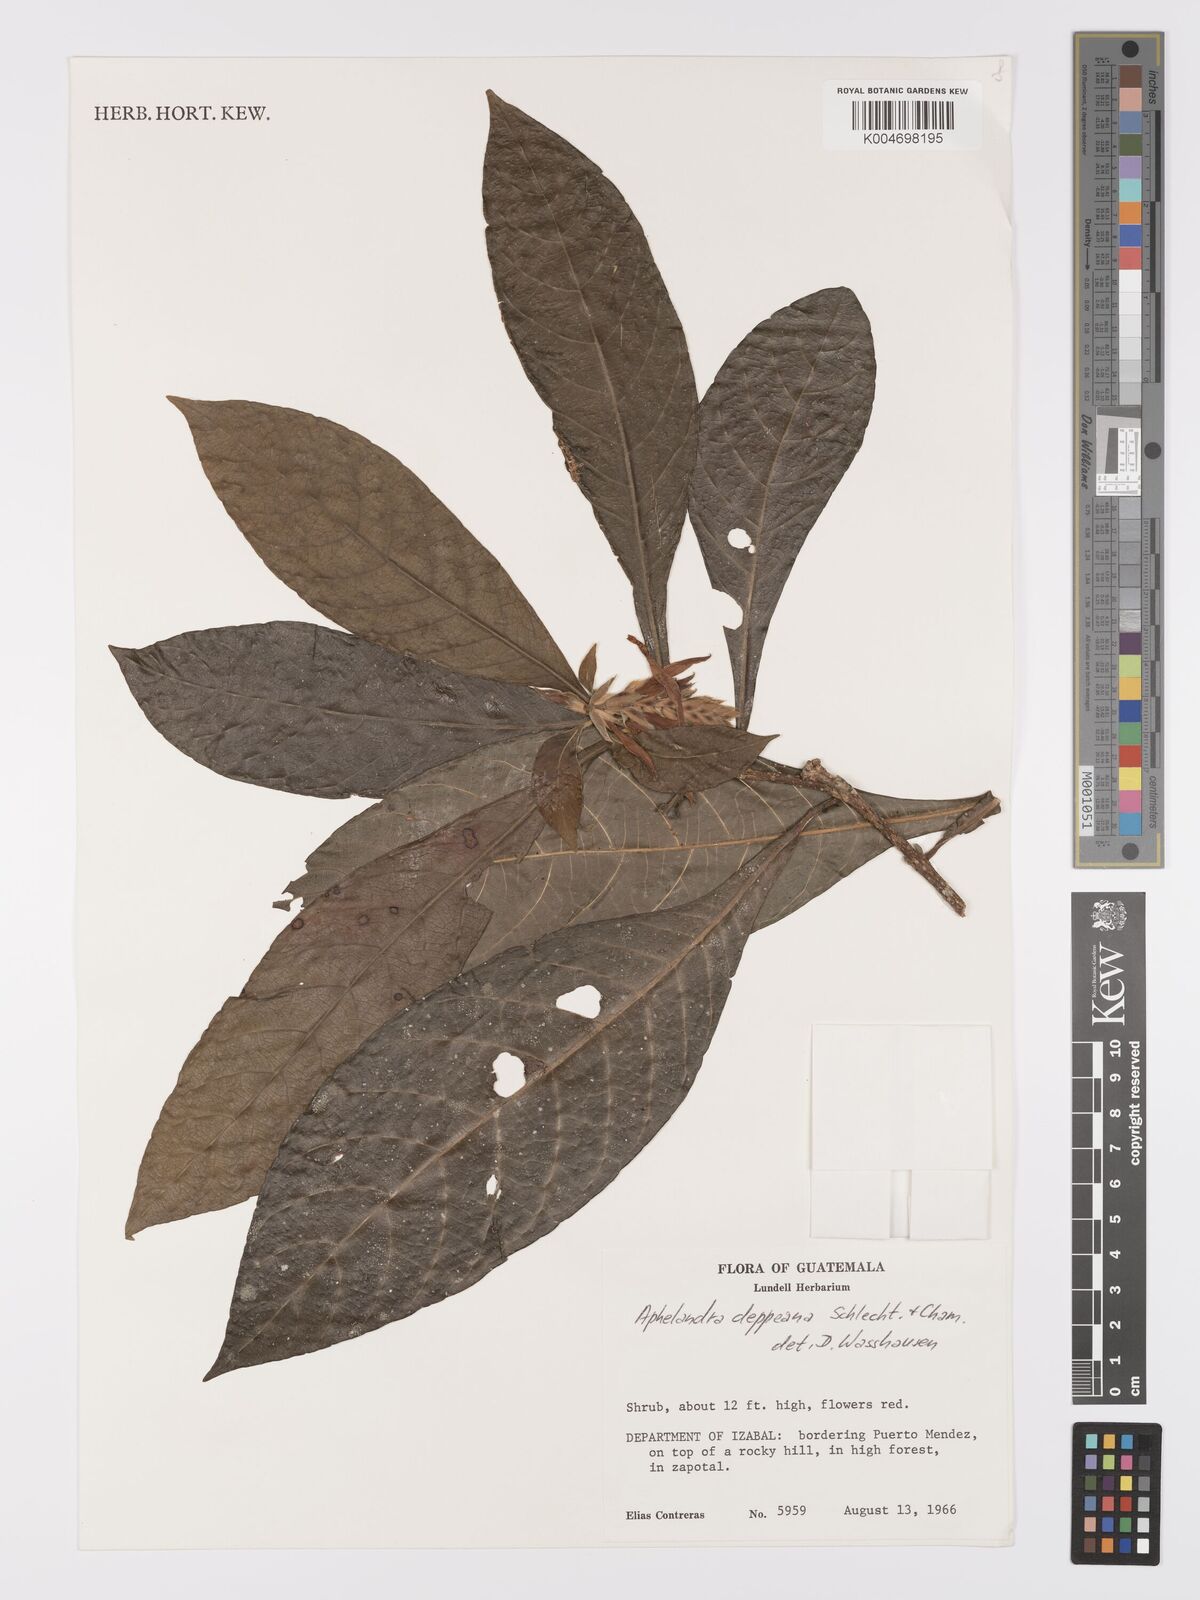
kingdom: Plantae
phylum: Tracheophyta
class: Magnoliopsida
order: Lamiales
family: Acanthaceae
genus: Aphelandra
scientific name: Aphelandra scabra
